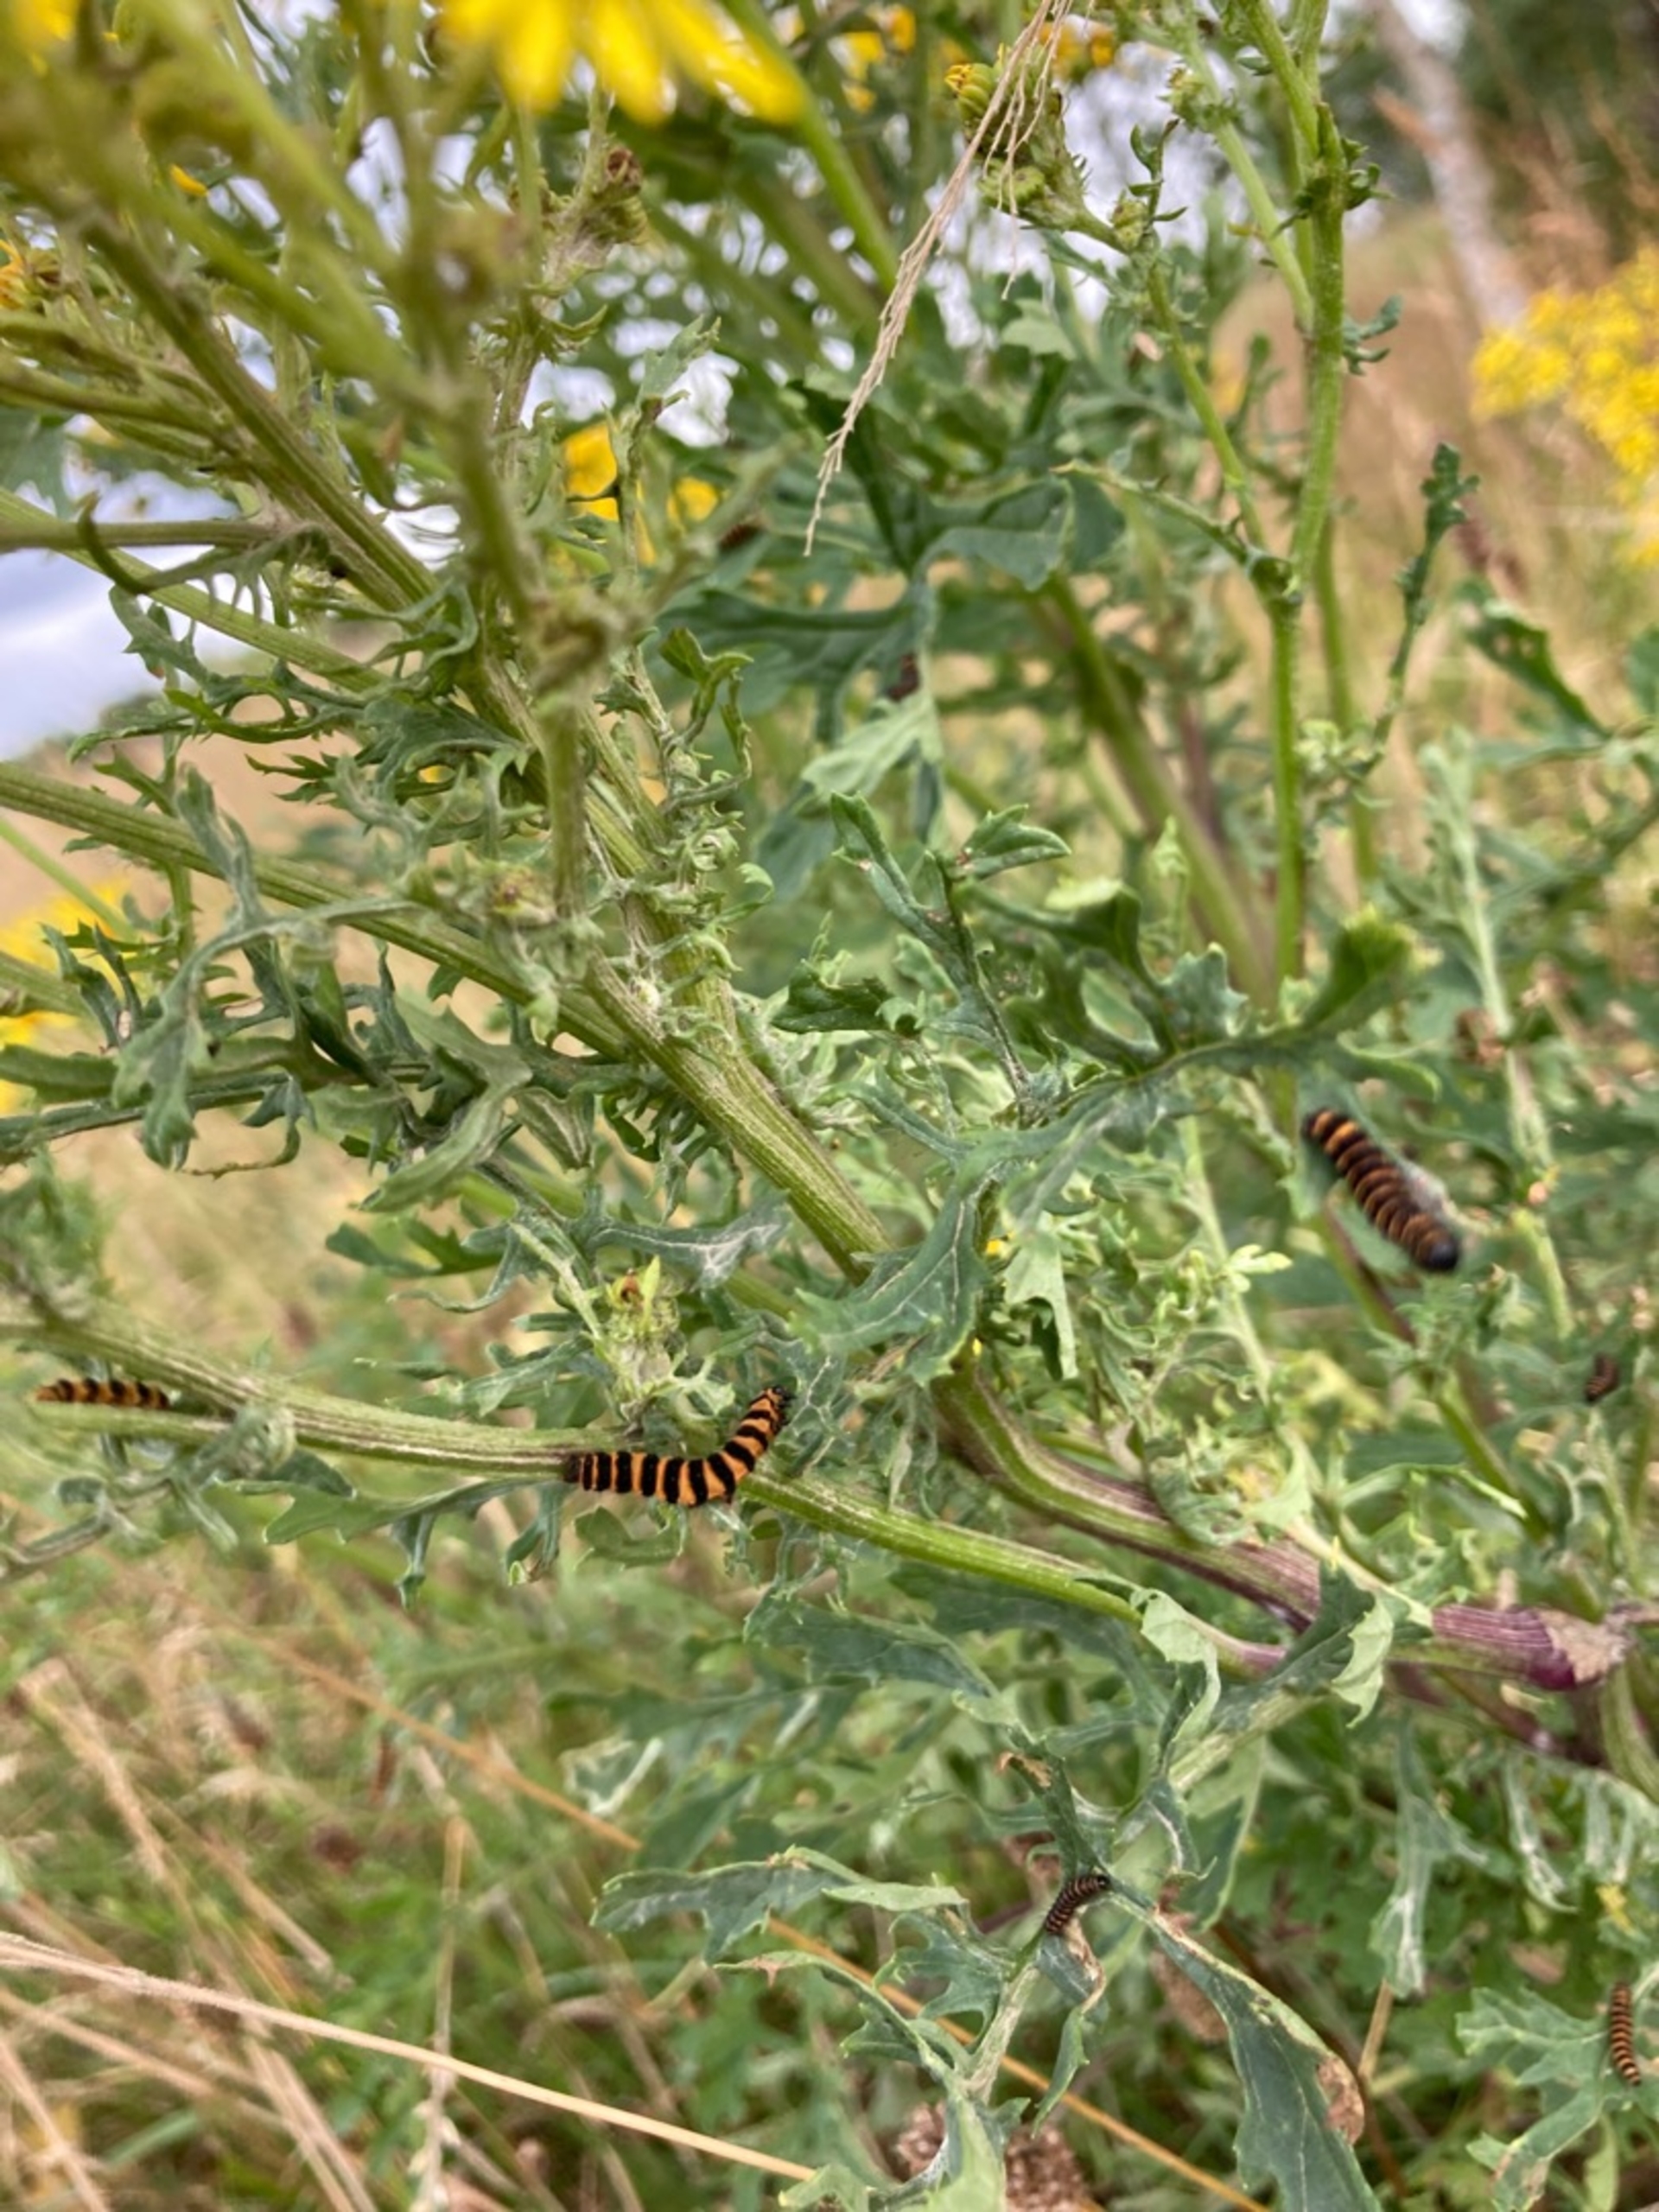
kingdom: Animalia
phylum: Arthropoda
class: Insecta
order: Lepidoptera
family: Erebidae
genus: Tyria
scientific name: Tyria jacobaeae
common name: Blodplet
